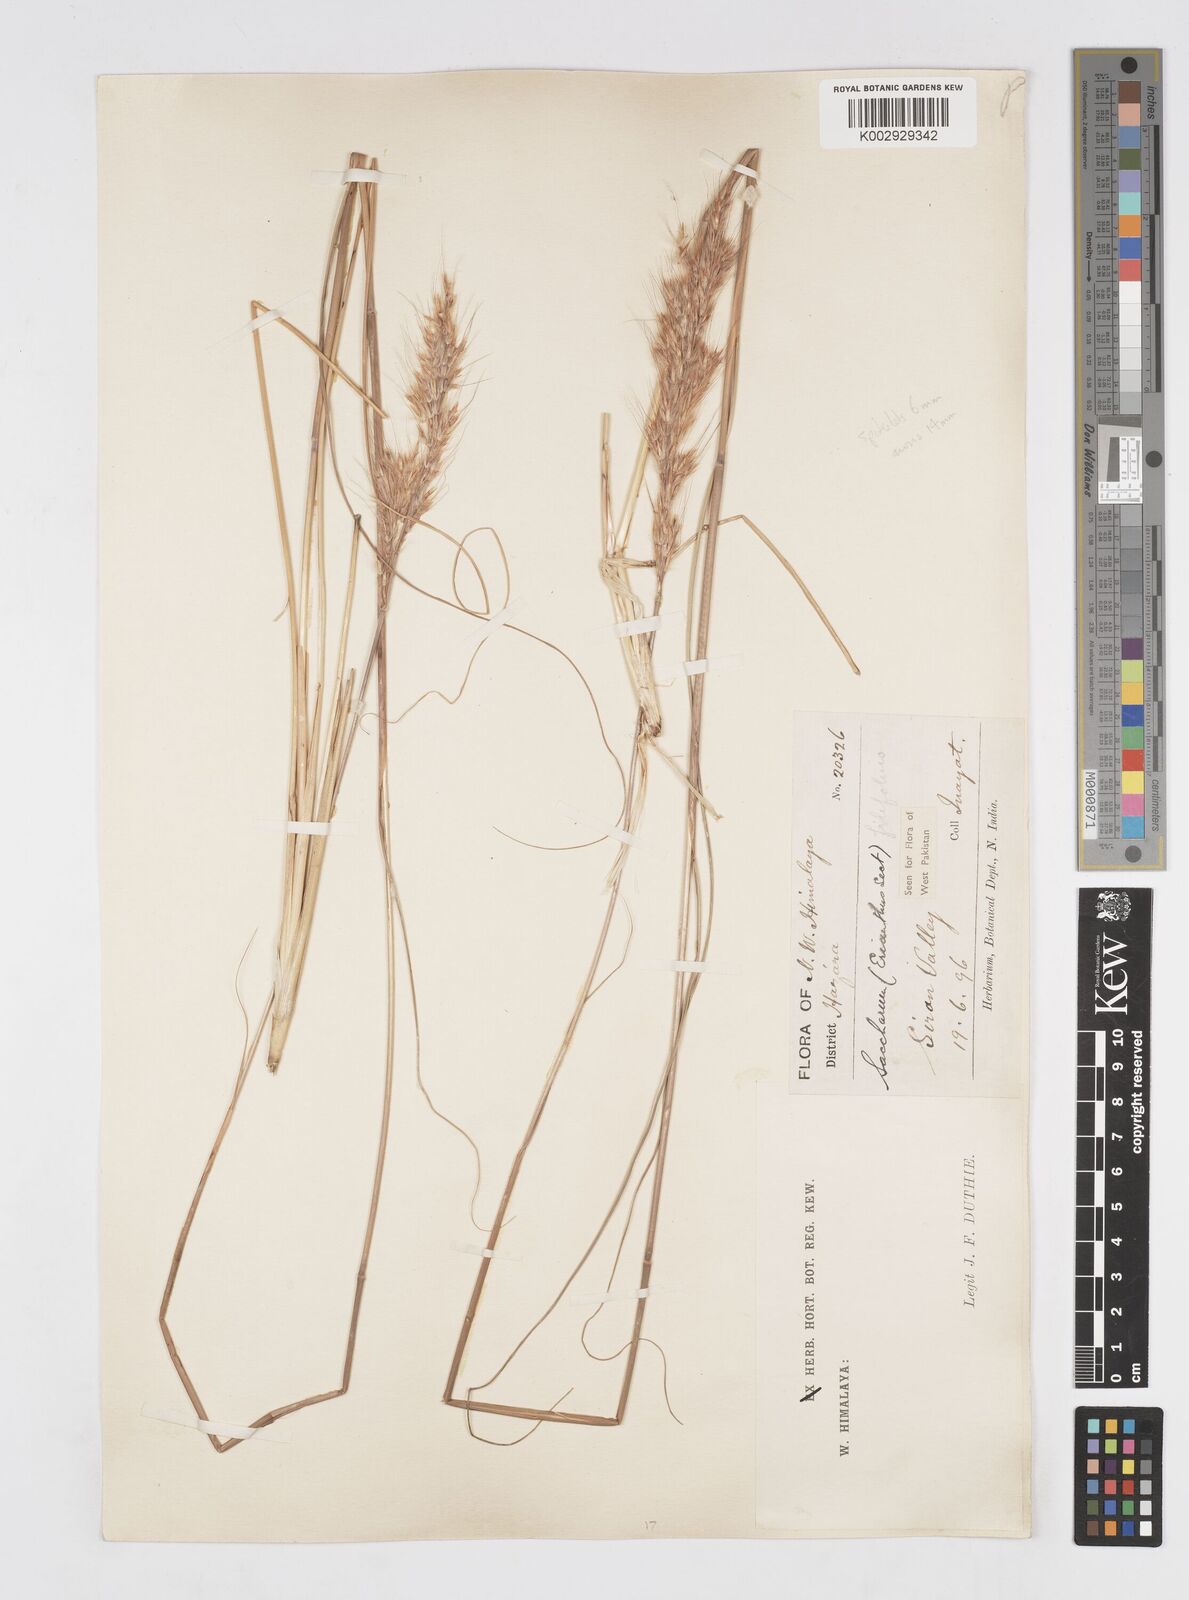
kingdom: Plantae
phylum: Tracheophyta
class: Liliopsida
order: Poales
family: Poaceae
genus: Saccharum
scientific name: Saccharum filifolium
